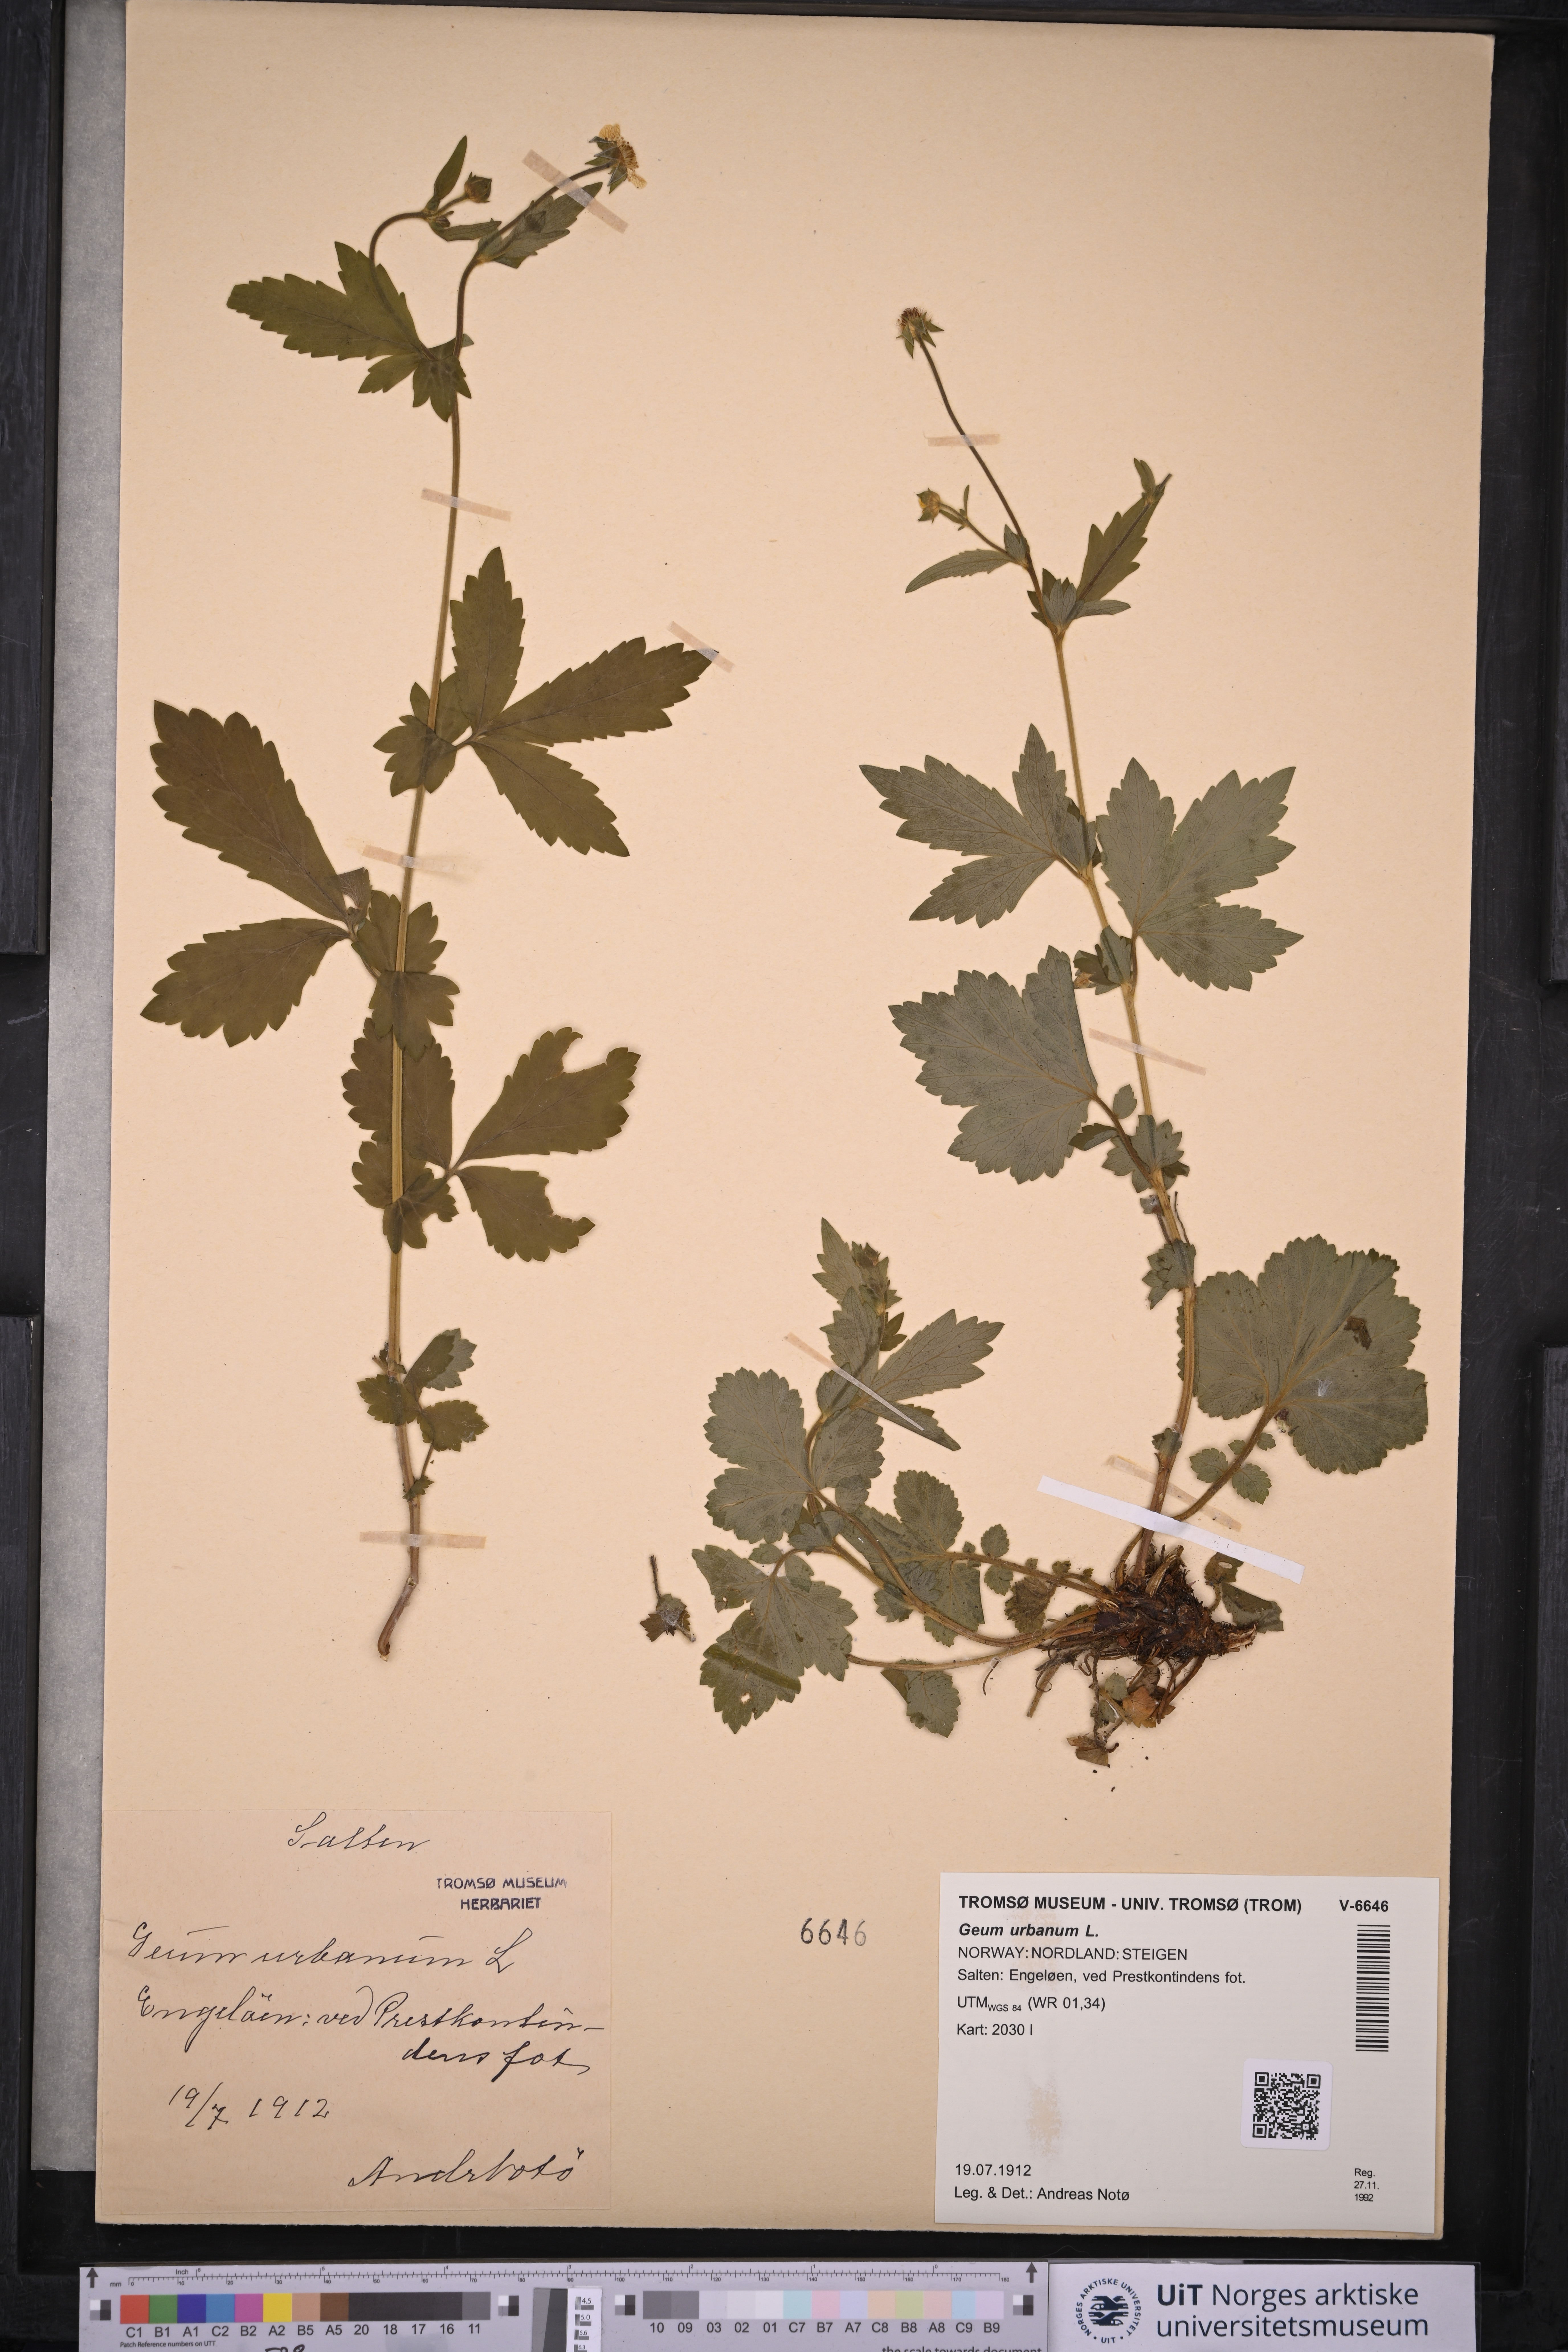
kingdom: Plantae
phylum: Tracheophyta
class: Magnoliopsida
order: Rosales
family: Rosaceae
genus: Geum
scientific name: Geum urbanum
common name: Wood avens
